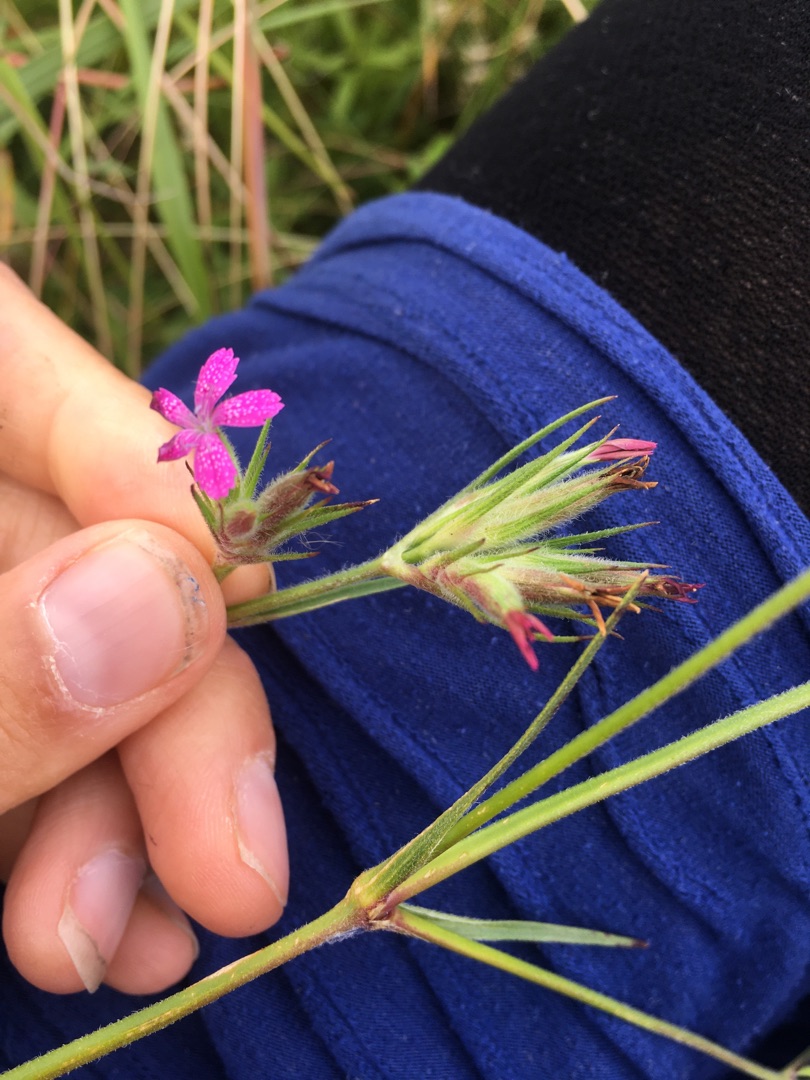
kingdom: Plantae
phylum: Tracheophyta
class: Magnoliopsida
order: Caryophyllales
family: Caryophyllaceae
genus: Dianthus
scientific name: Dianthus armeria
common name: Kost-nellike
